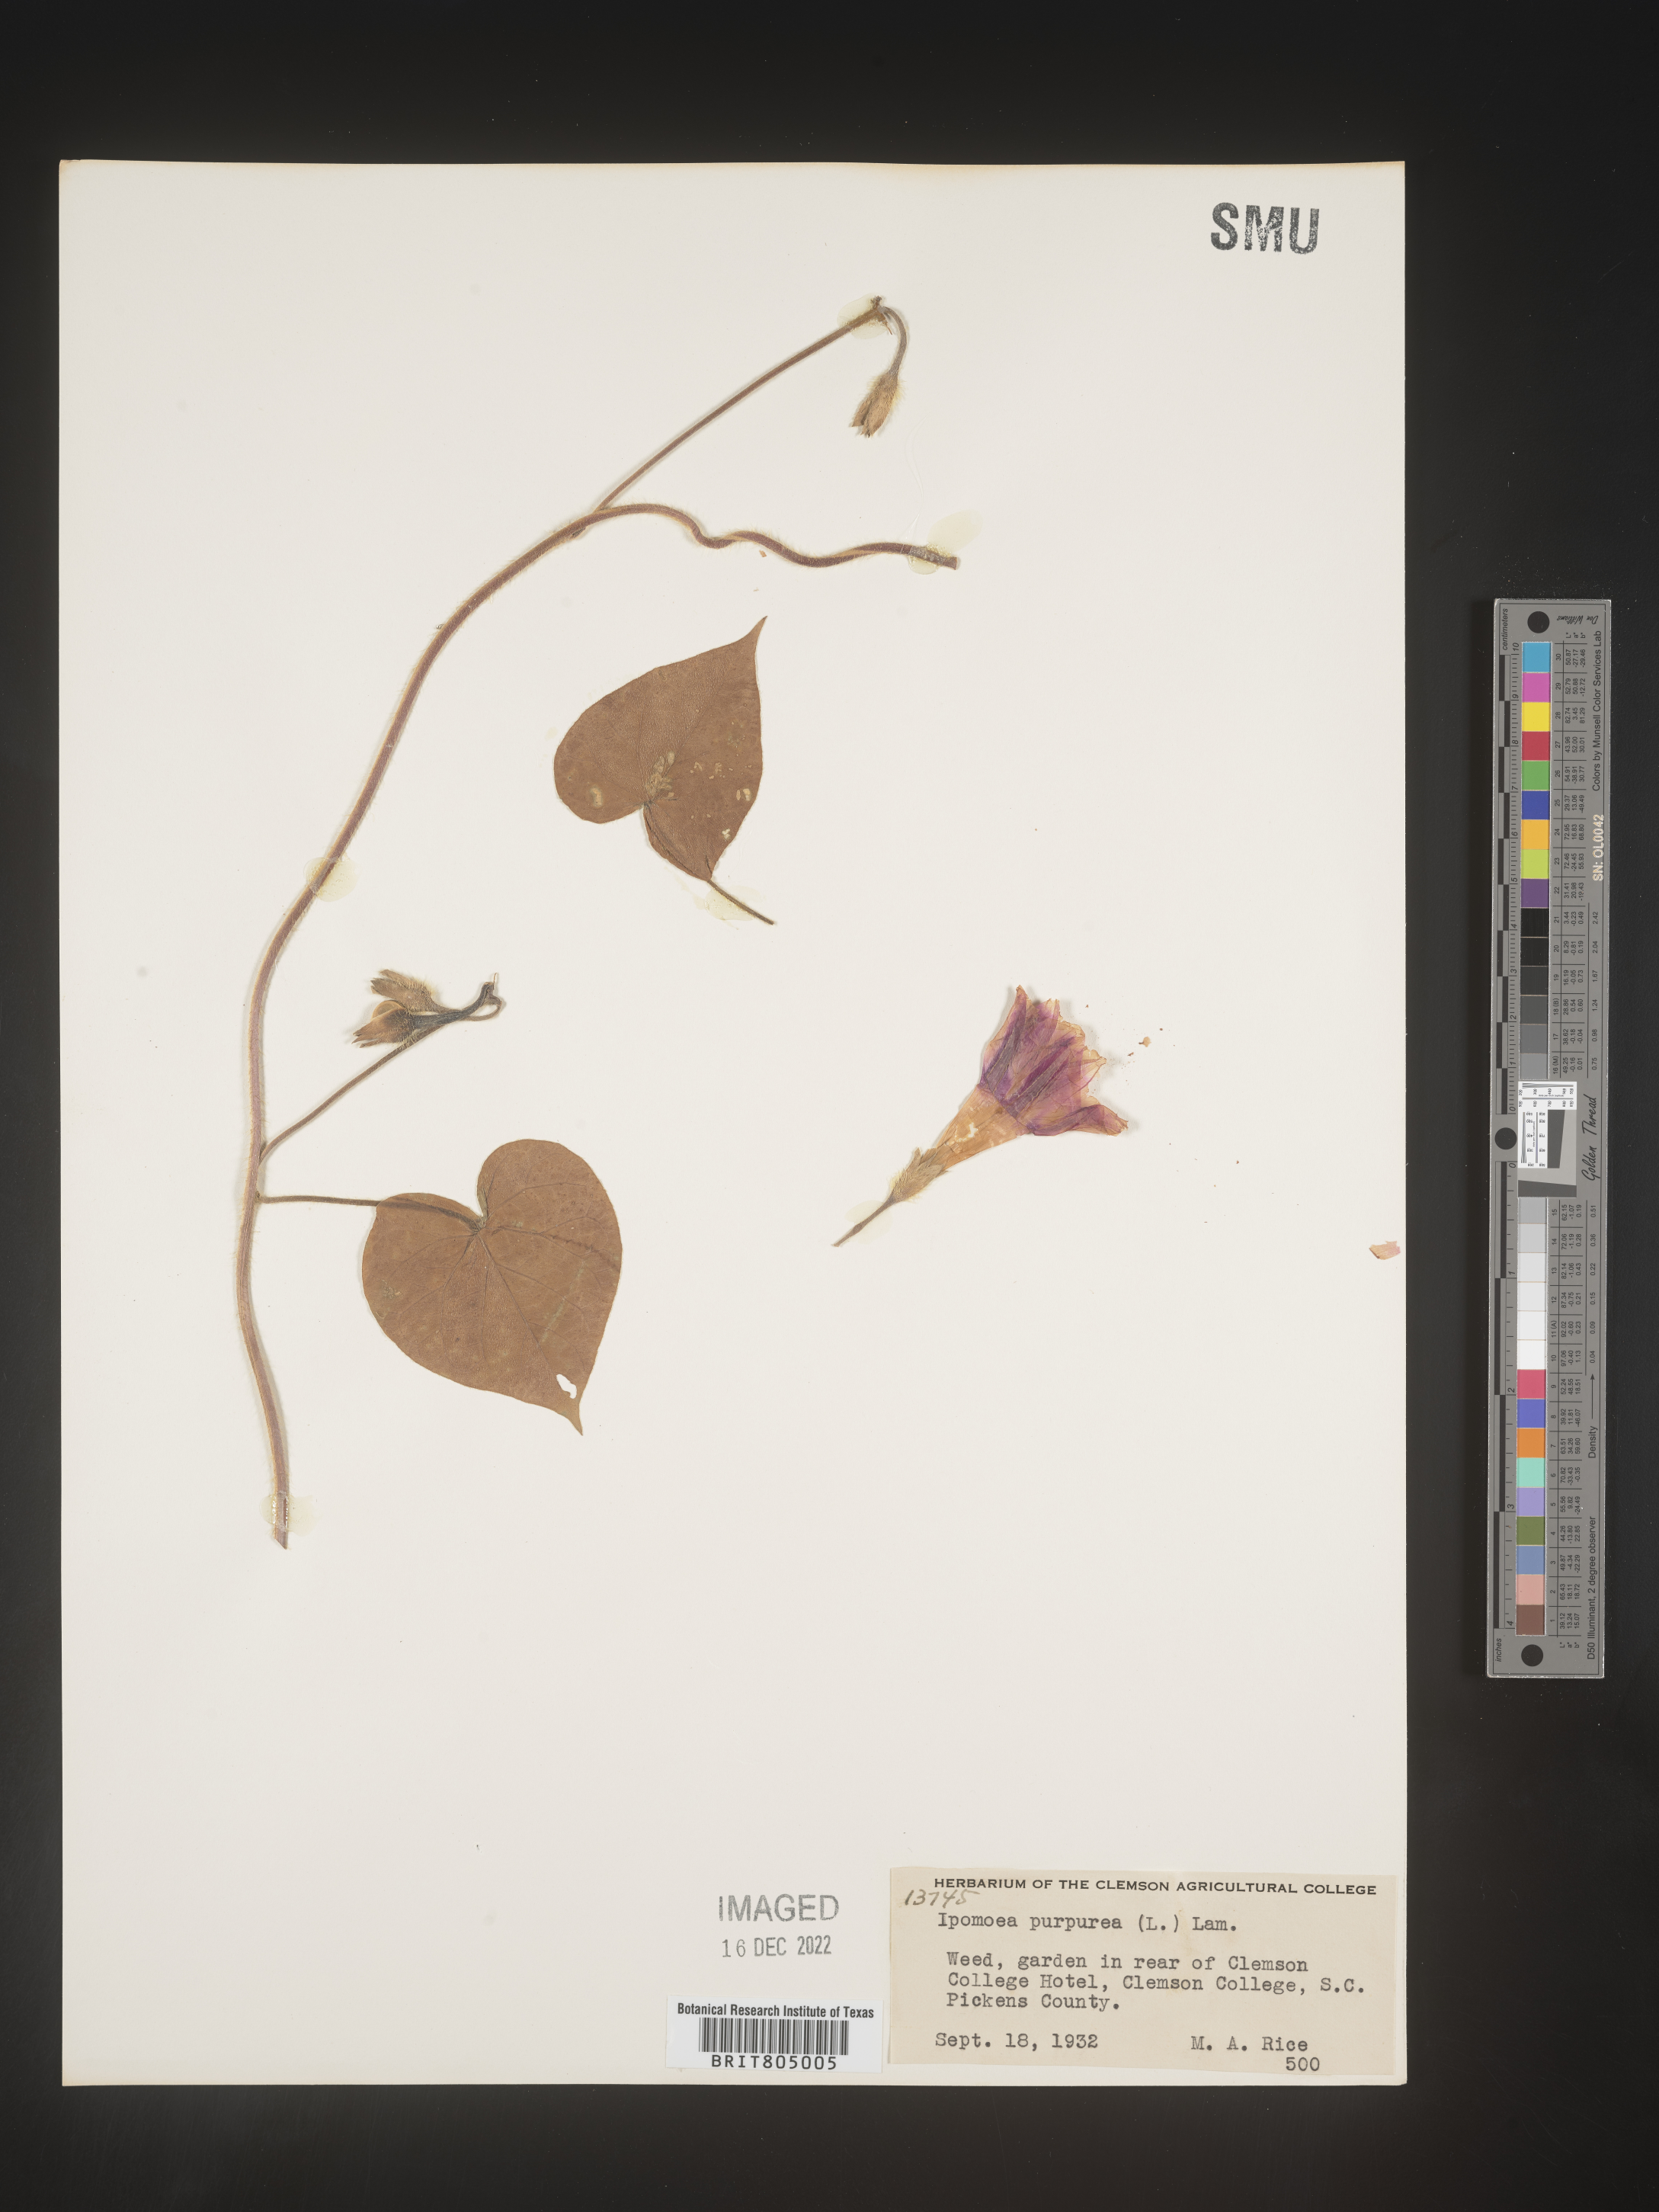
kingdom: Plantae
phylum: Tracheophyta
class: Magnoliopsida
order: Solanales
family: Convolvulaceae
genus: Ipomoea
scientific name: Ipomoea purpurea
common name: Common morning-glory
